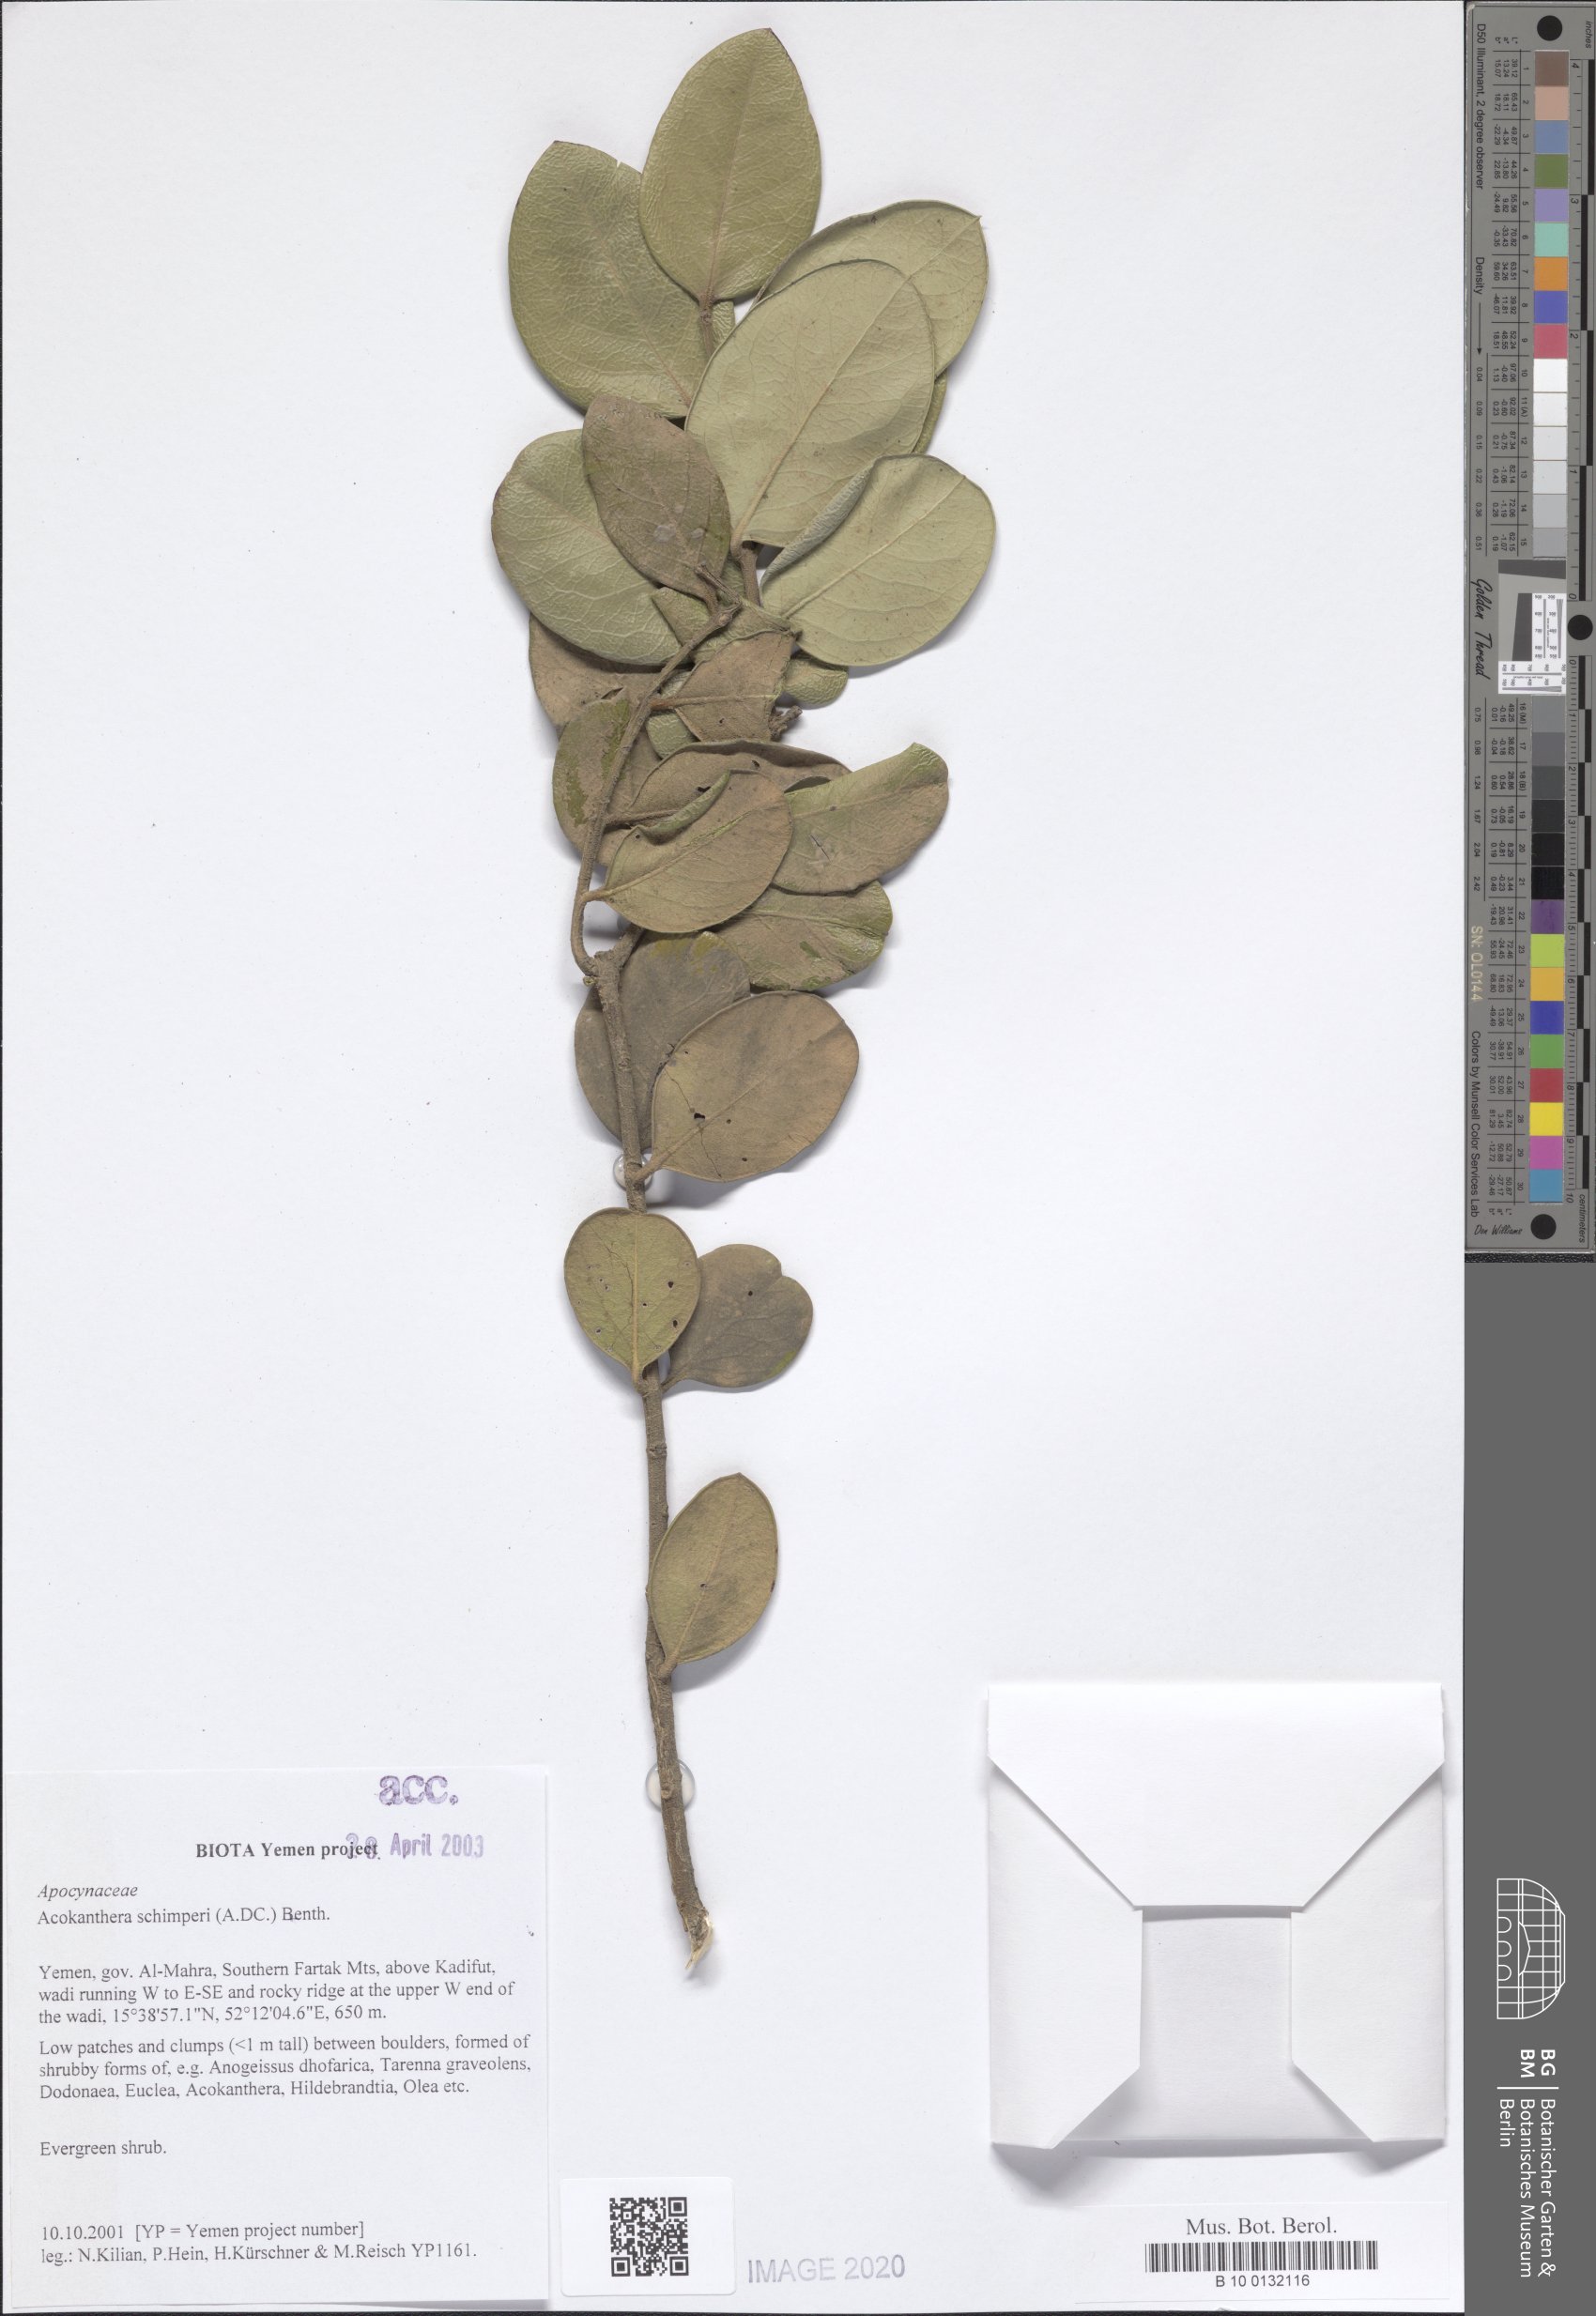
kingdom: Plantae
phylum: Tracheophyta
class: Magnoliopsida
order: Gentianales
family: Apocynaceae
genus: Acokanthera
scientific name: Acokanthera schimperi
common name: Arrow-poison-tree
